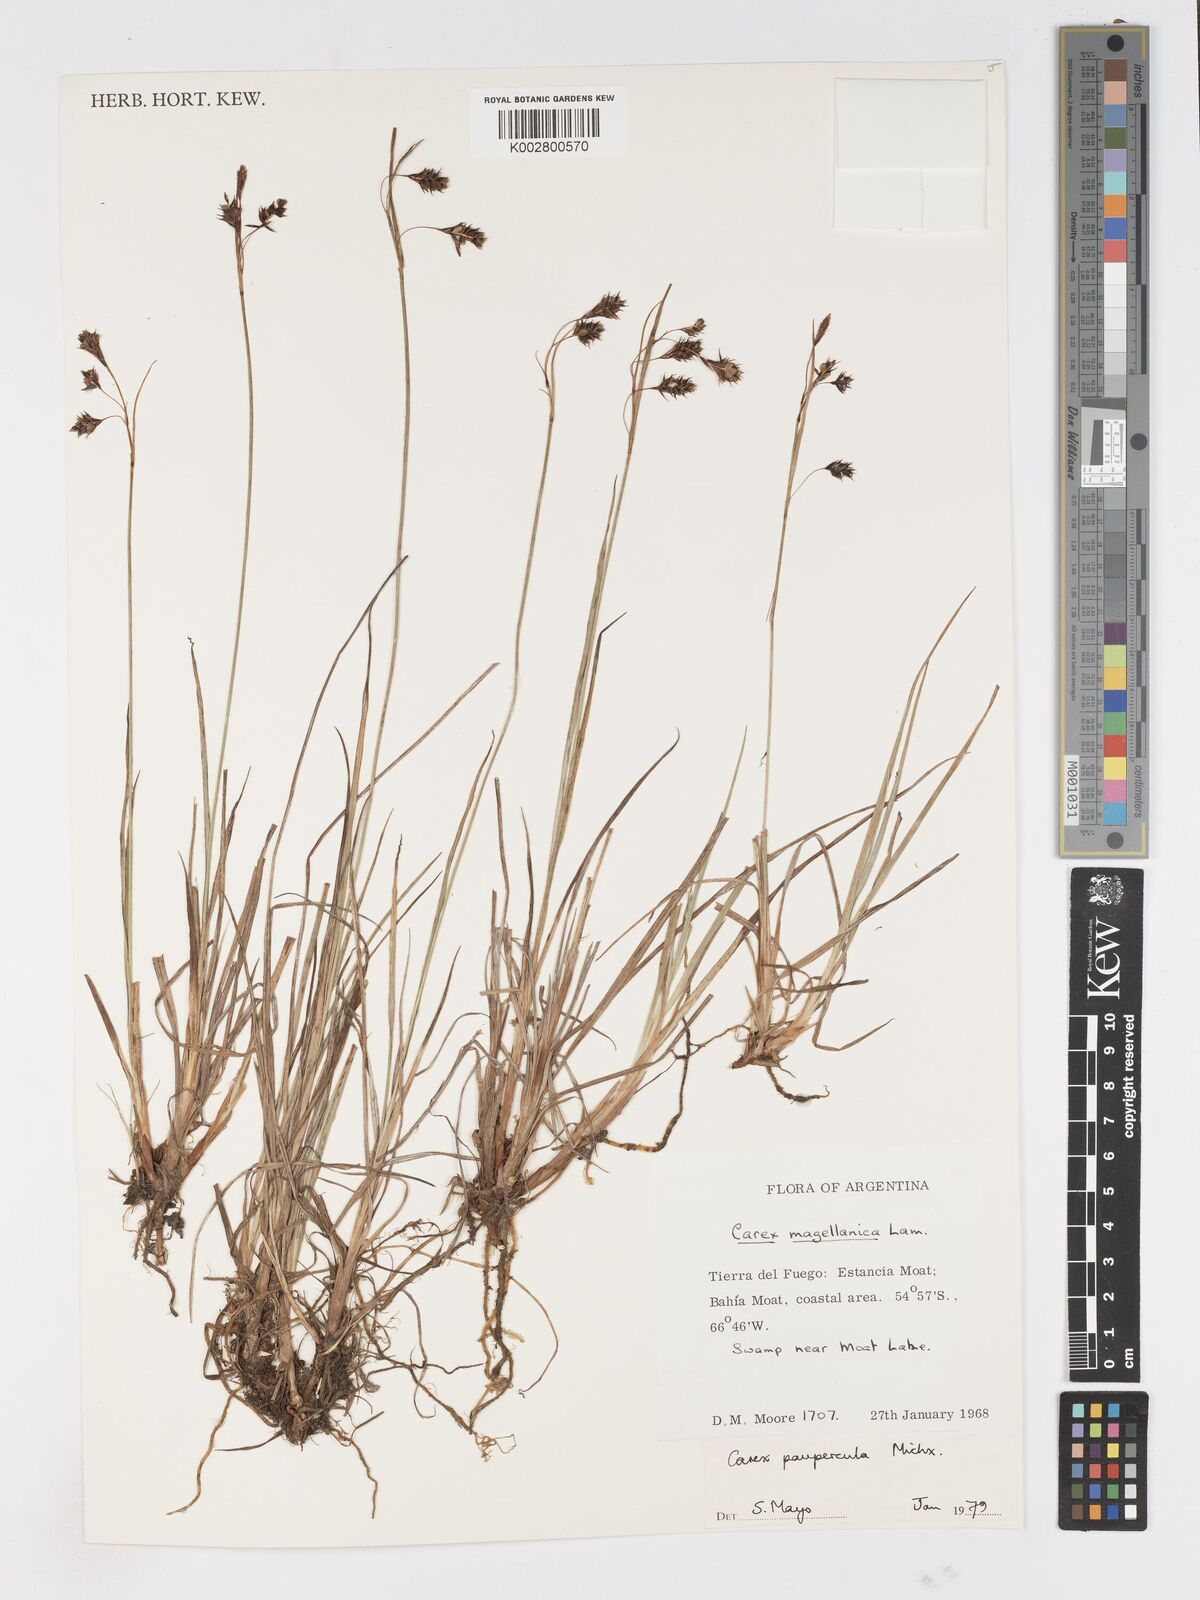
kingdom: Plantae
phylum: Tracheophyta
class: Liliopsida
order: Poales
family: Cyperaceae
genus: Carex
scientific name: Carex magellanica
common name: Bog sedge
